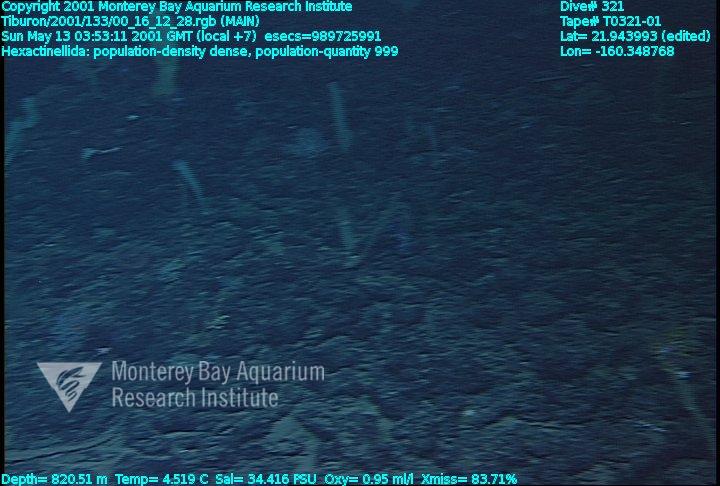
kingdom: Animalia
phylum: Porifera
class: Hexactinellida
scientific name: Hexactinellida
